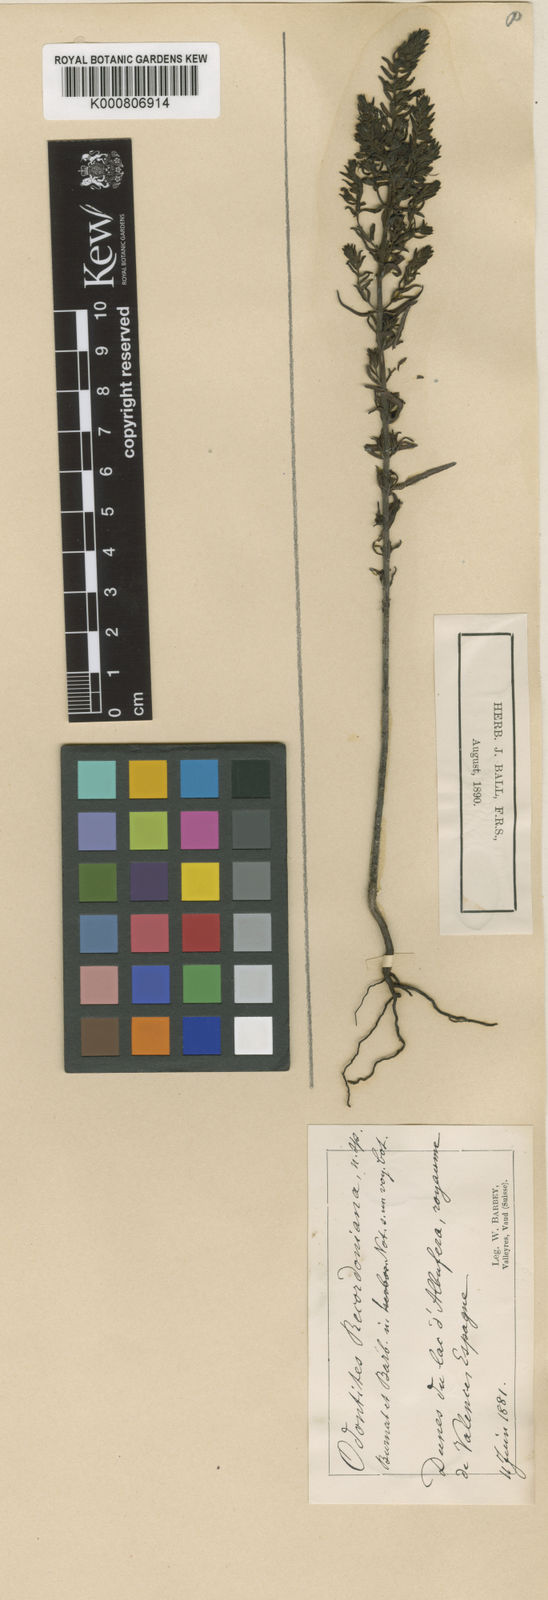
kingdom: Plantae
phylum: Tracheophyta
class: Magnoliopsida
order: Lamiales
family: Orobanchaceae
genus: Odontites
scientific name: Odontites recordonii
